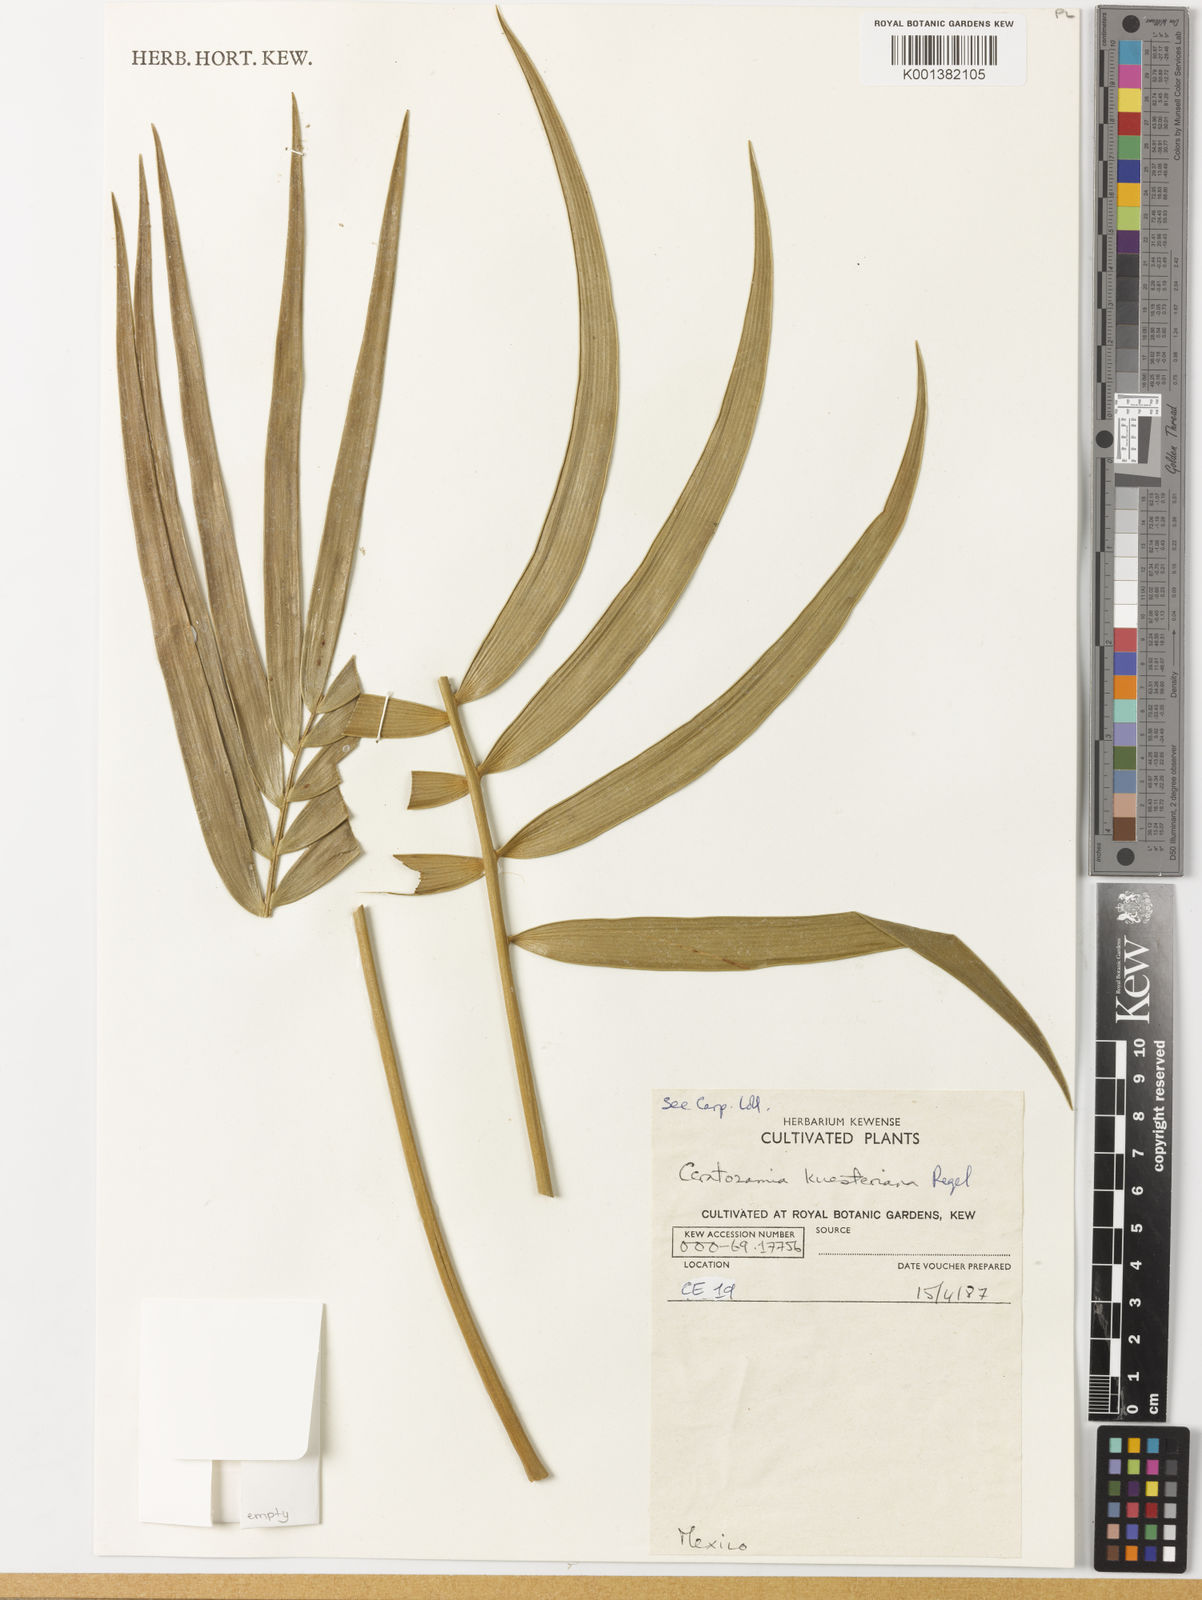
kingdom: Plantae
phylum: Tracheophyta
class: Cycadopsida
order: Cycadales
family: Zamiaceae
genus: Ceratozamia
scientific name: Ceratozamia kuesteriana
